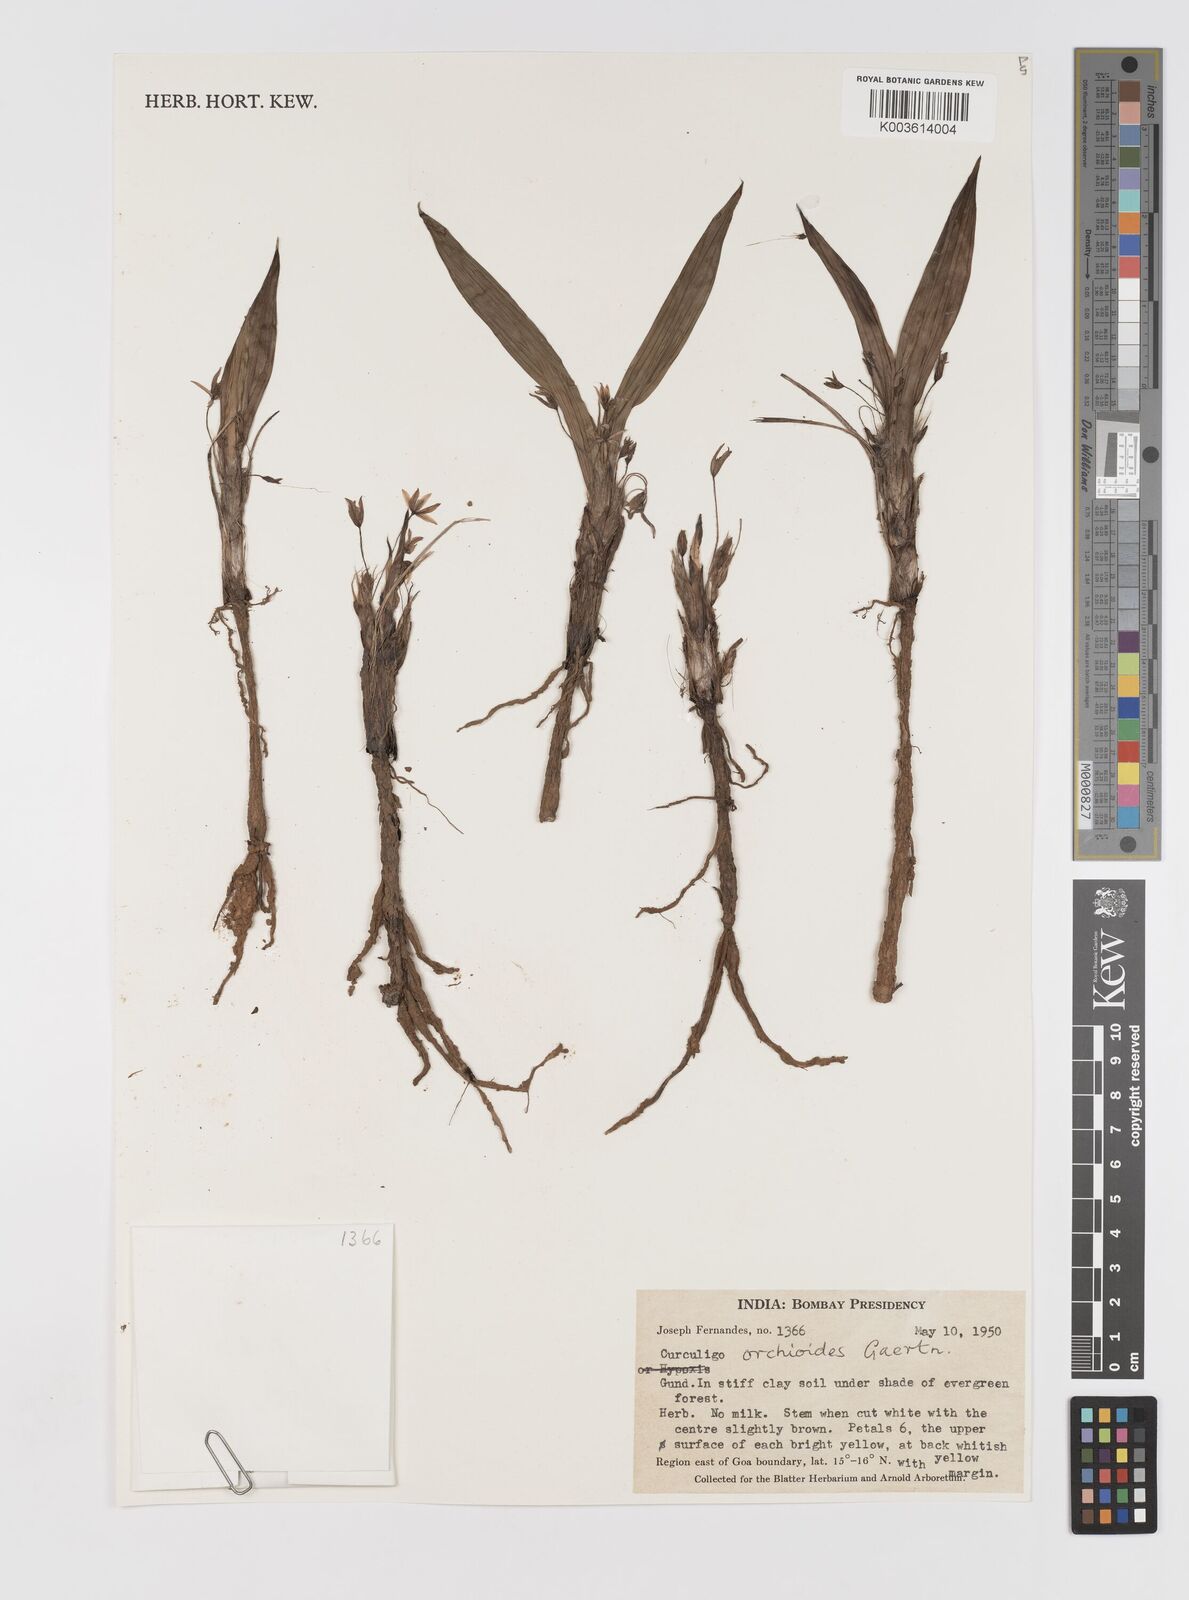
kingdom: Plantae
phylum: Tracheophyta
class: Liliopsida
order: Asparagales
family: Hypoxidaceae
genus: Curculigo
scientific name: Curculigo orchioides
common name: Golden eye-grass
